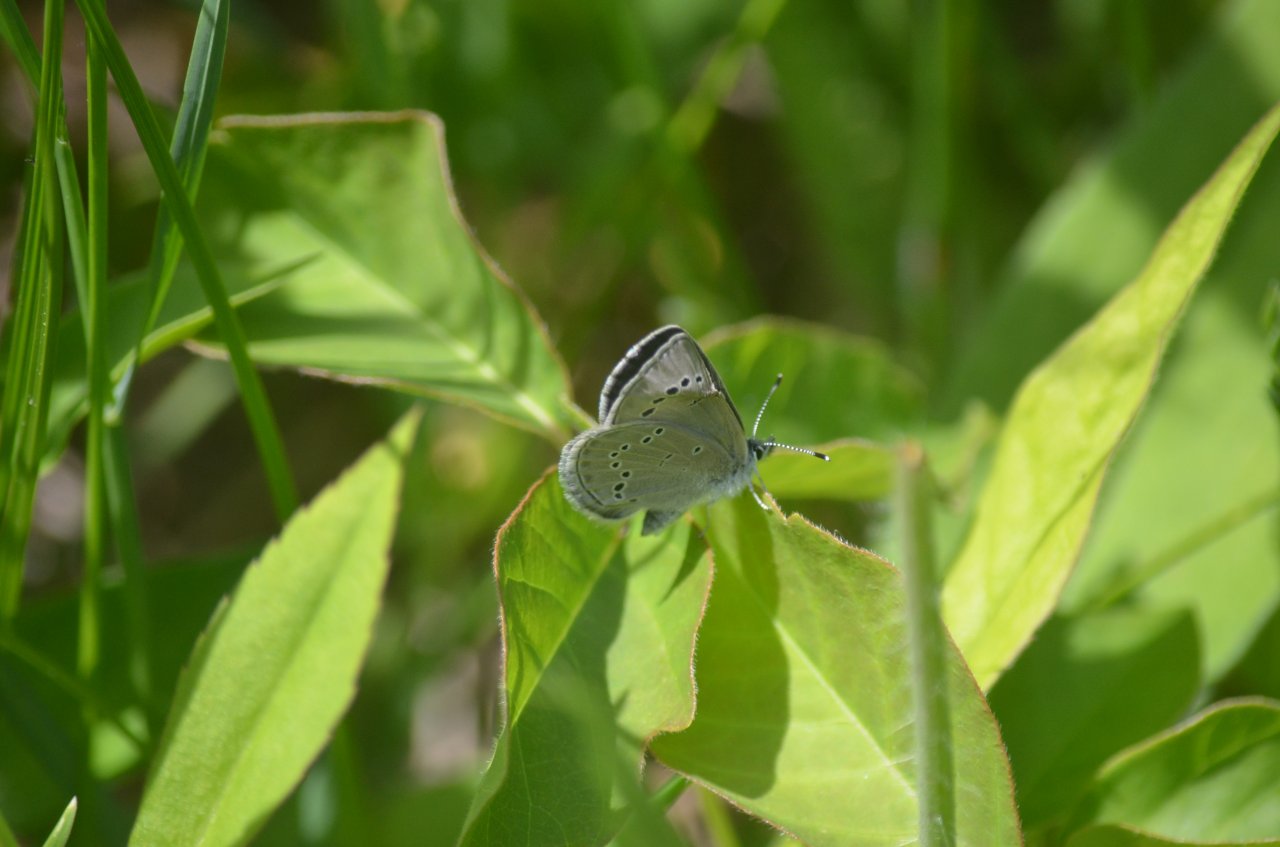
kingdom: Animalia
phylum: Arthropoda
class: Insecta
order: Lepidoptera
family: Lycaenidae
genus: Glaucopsyche
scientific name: Glaucopsyche lygdamus
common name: Silvery Blue
